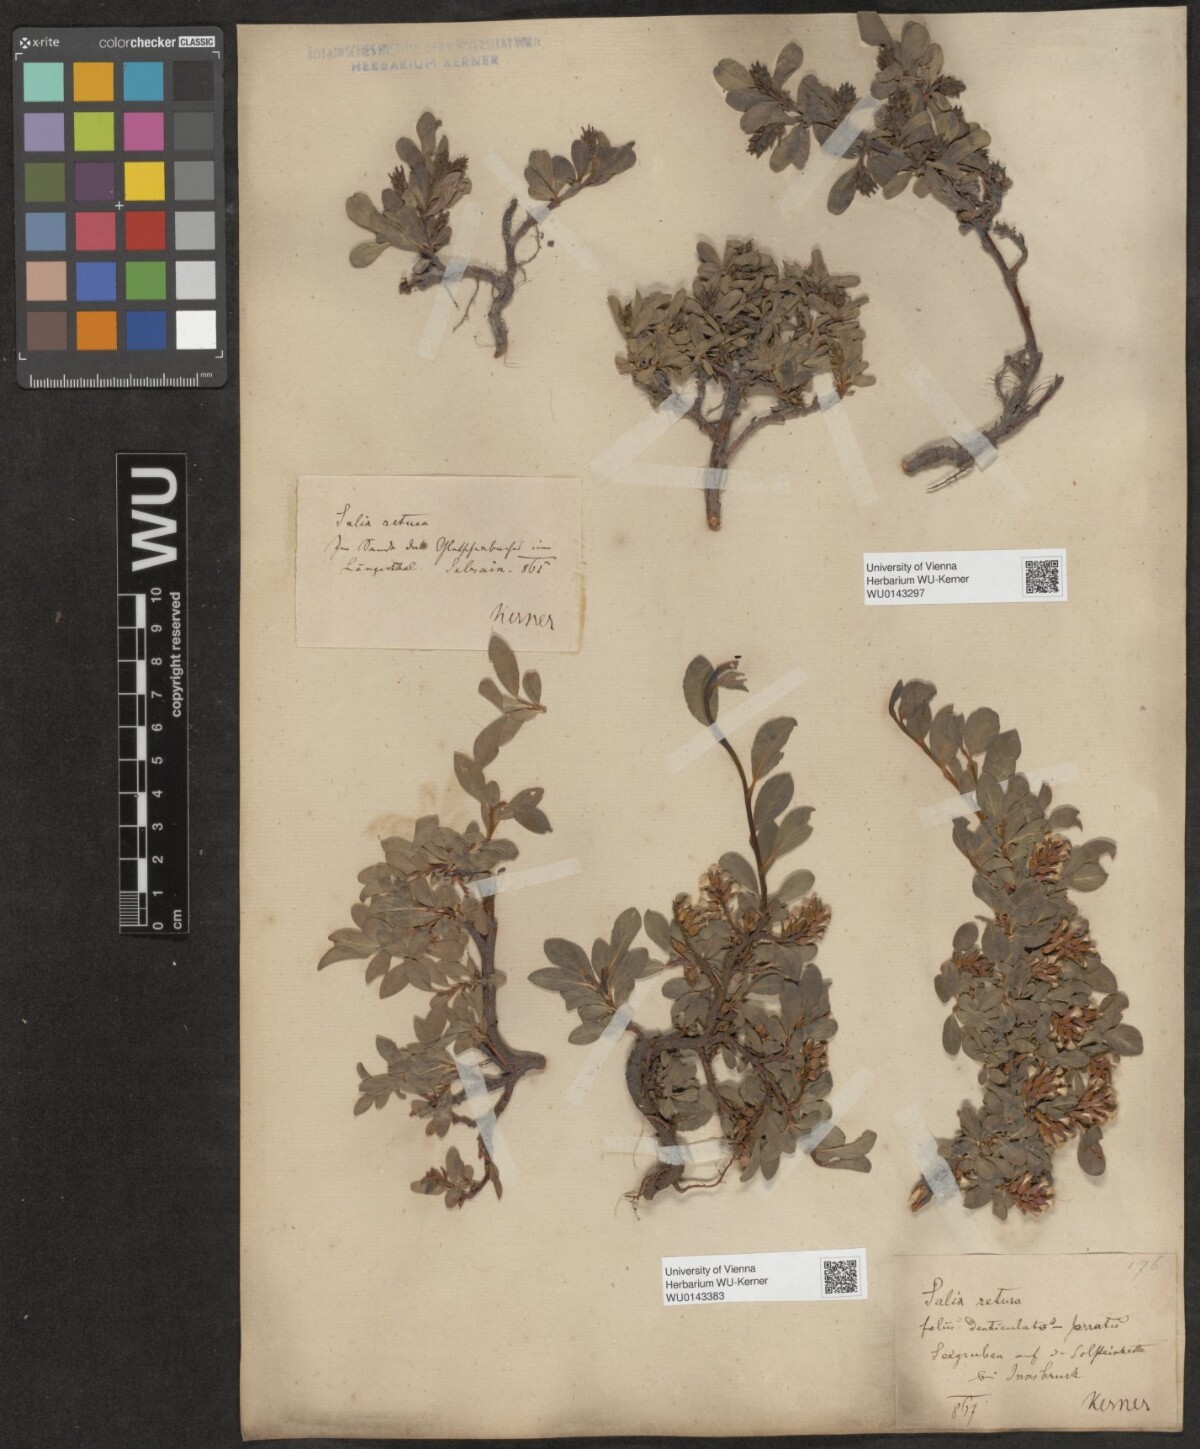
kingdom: Plantae
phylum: Tracheophyta
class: Magnoliopsida
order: Malpighiales
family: Salicaceae
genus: Salix
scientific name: Salix retusa
